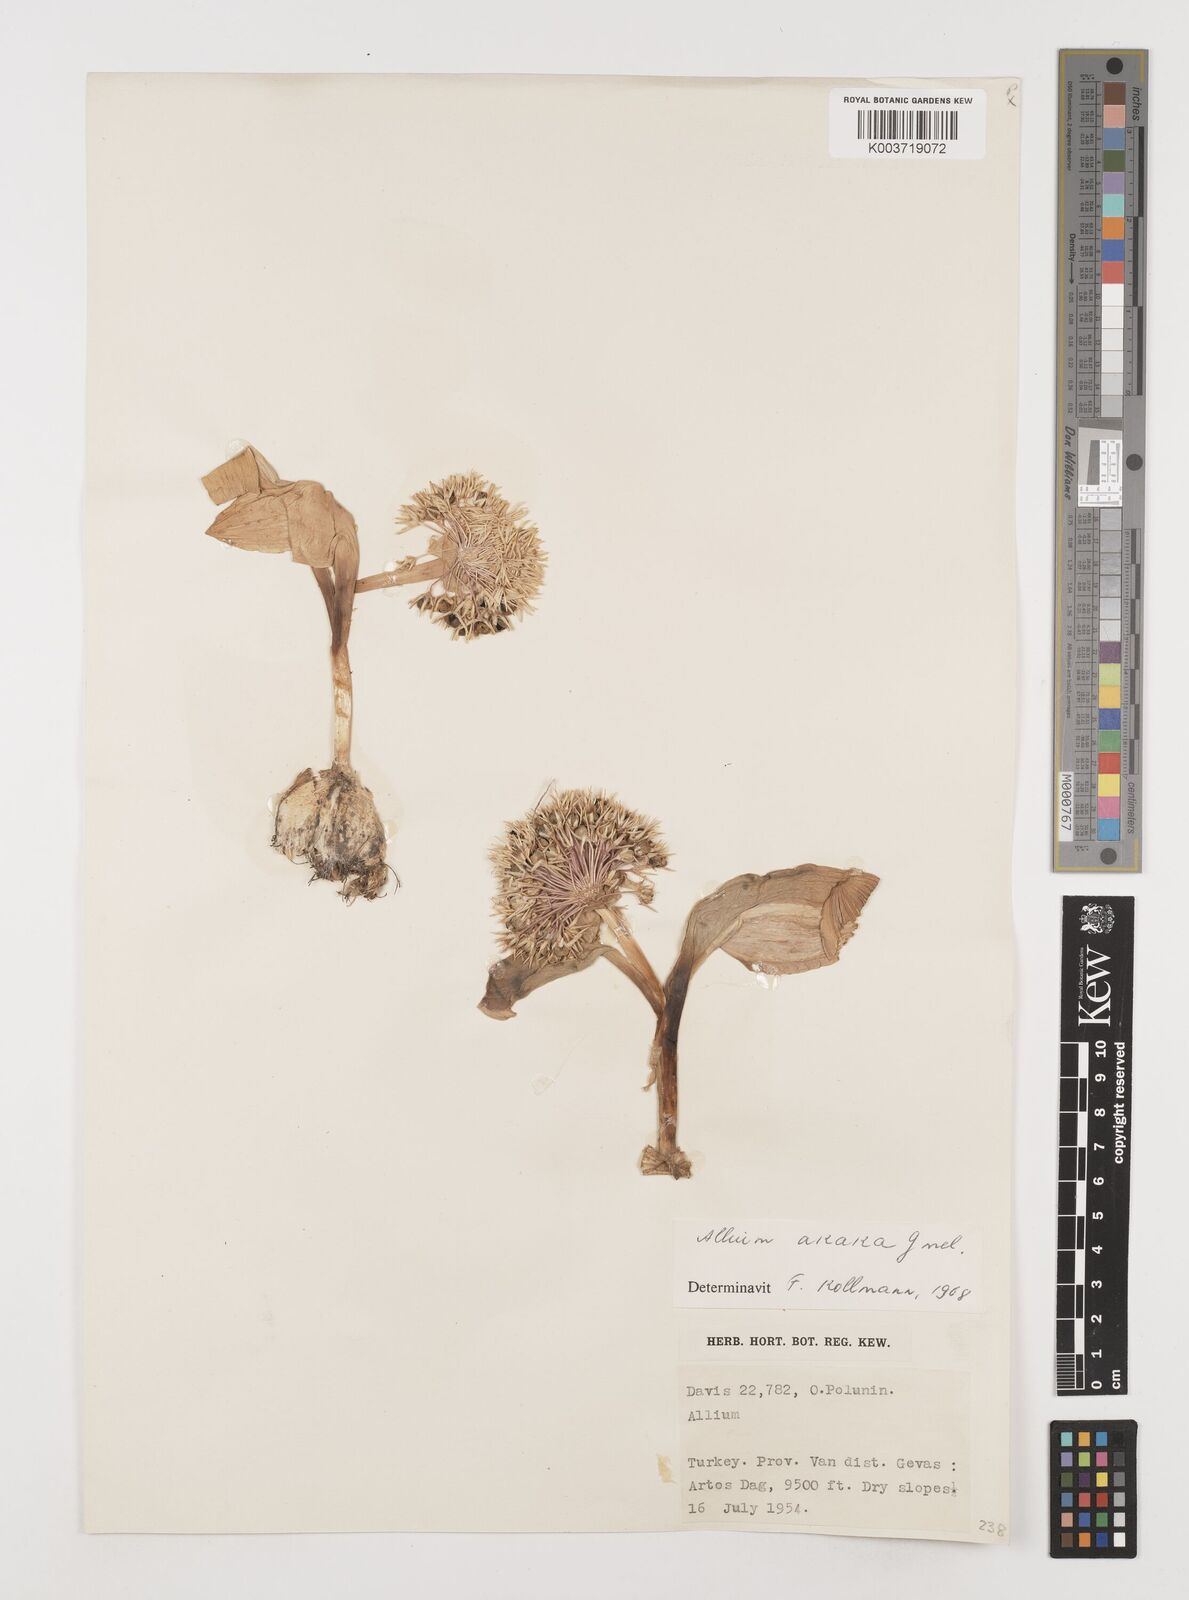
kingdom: Plantae
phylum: Tracheophyta
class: Liliopsida
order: Asparagales
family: Amaryllidaceae
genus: Allium
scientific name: Allium akaka
